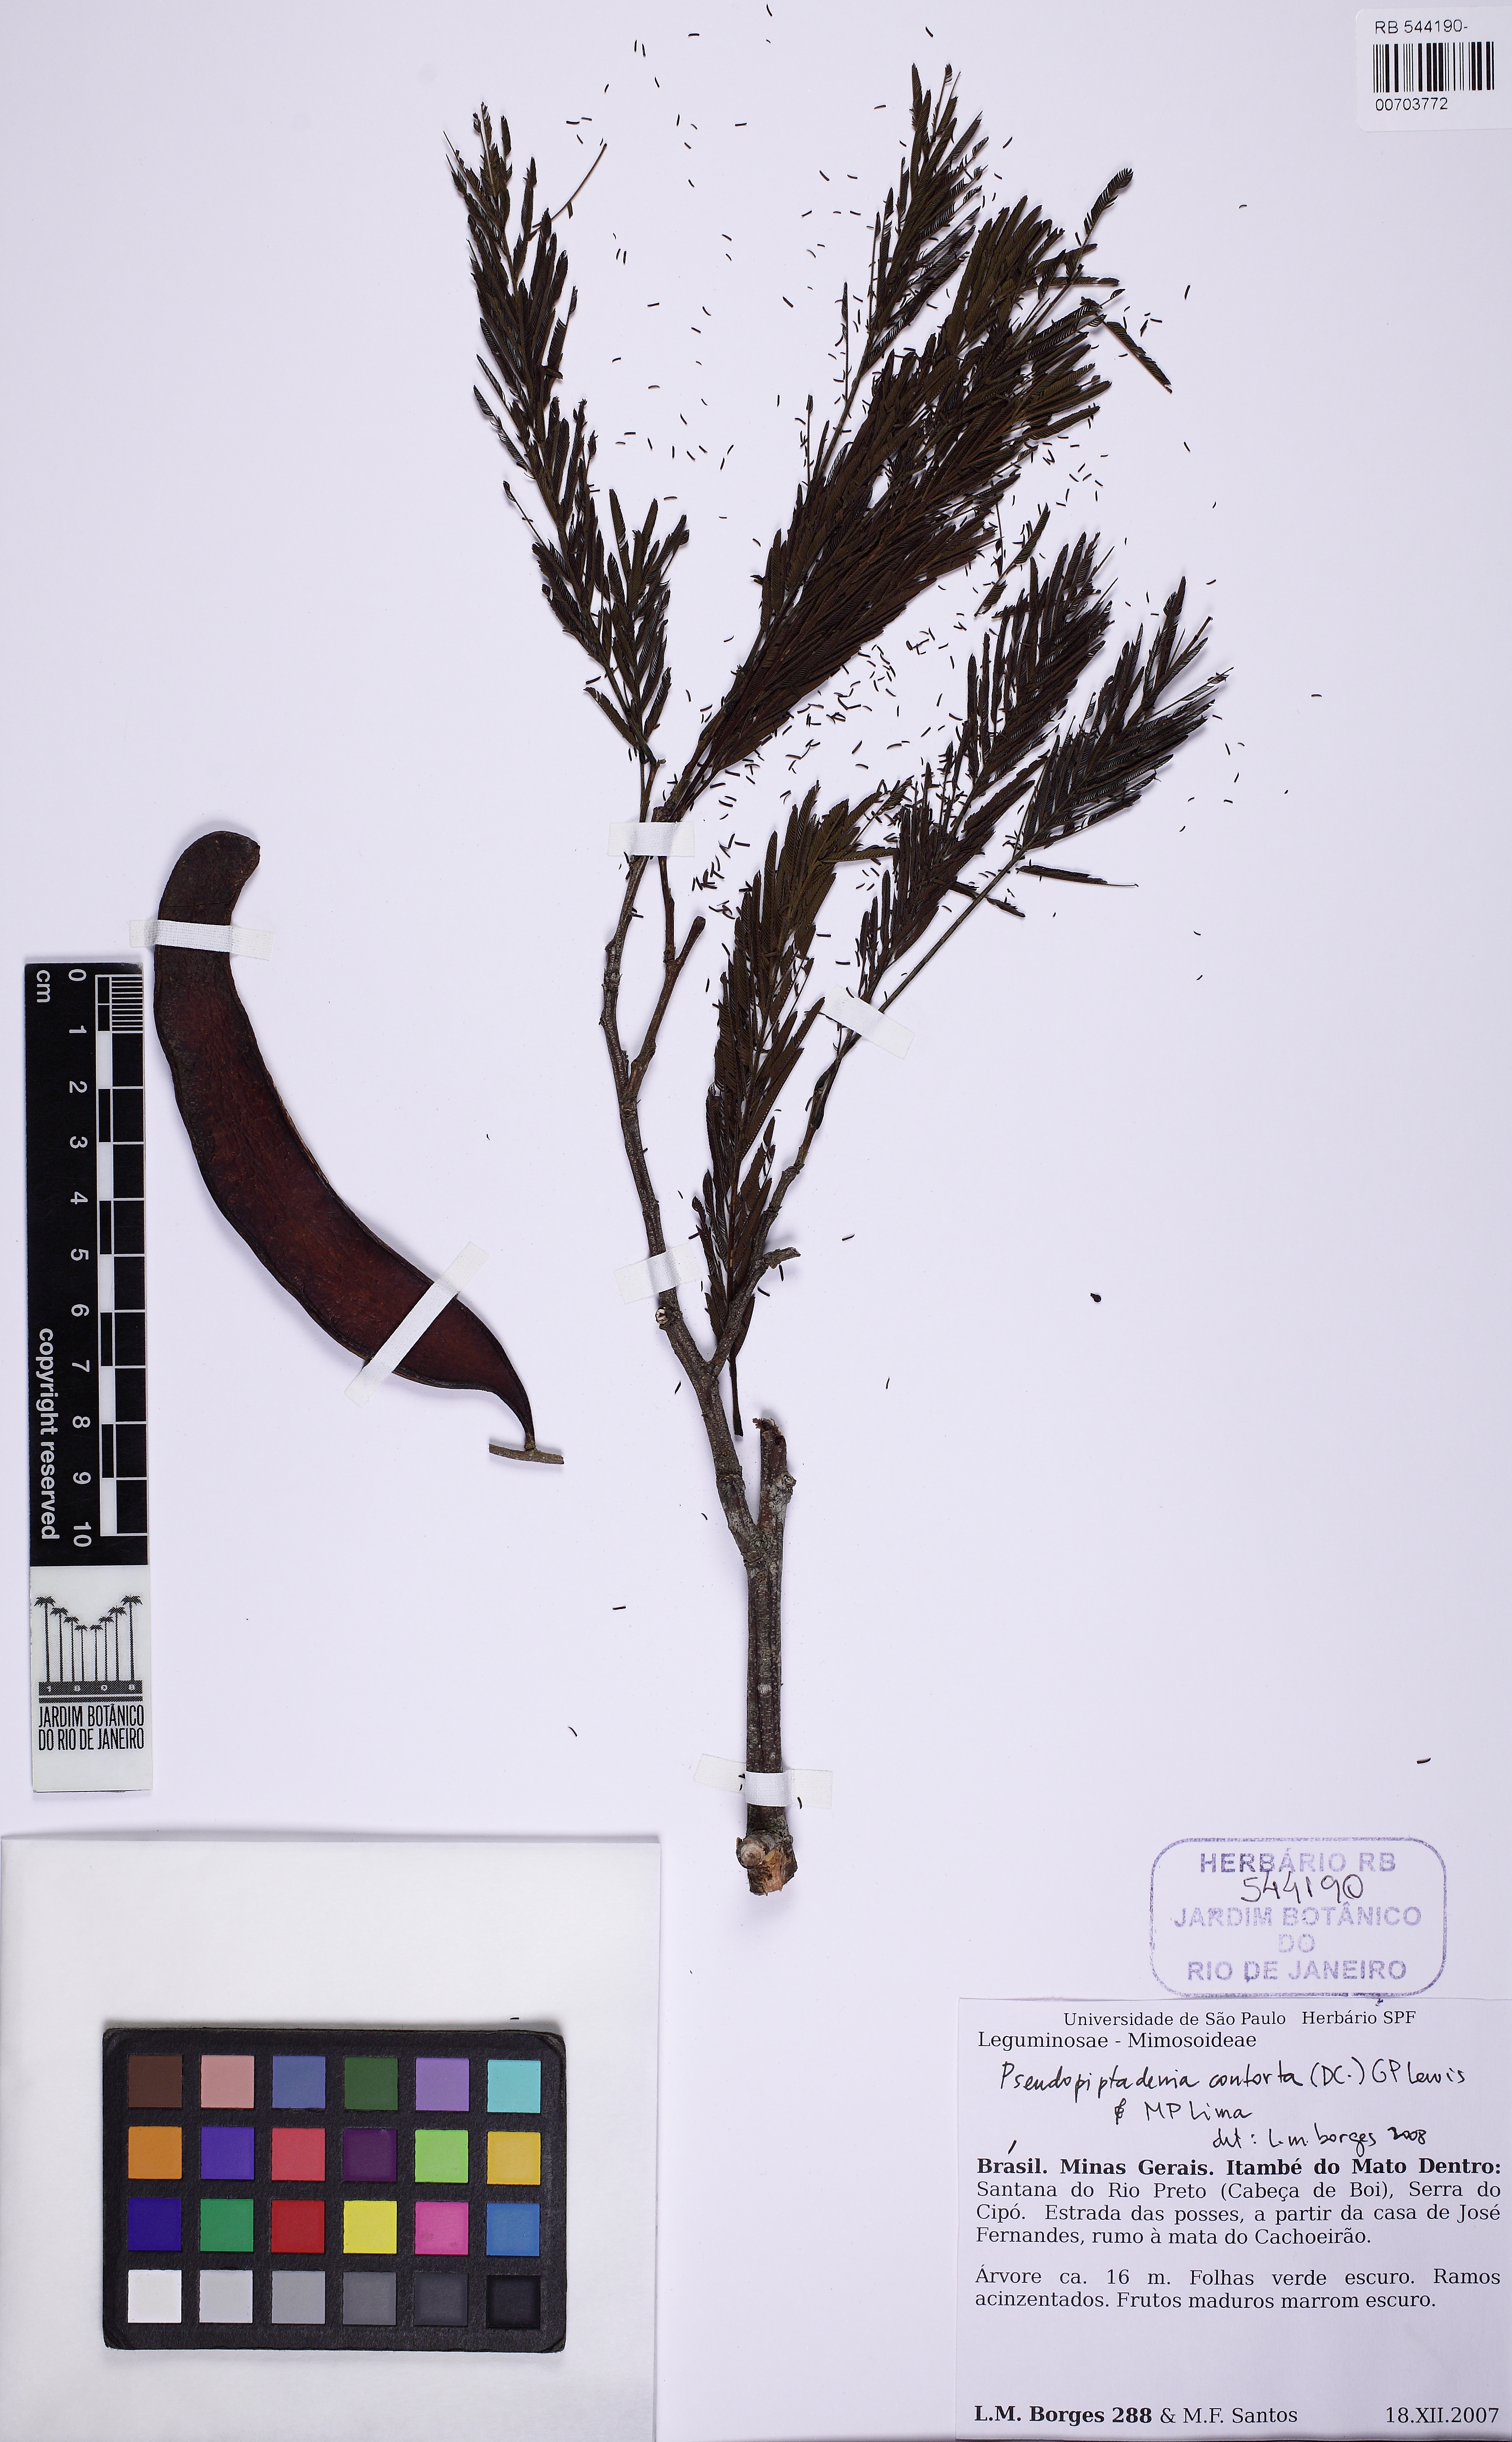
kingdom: Plantae
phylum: Tracheophyta
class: Magnoliopsida
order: Fabales
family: Fabaceae
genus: Pseudopiptadenia
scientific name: Pseudopiptadenia contorta
